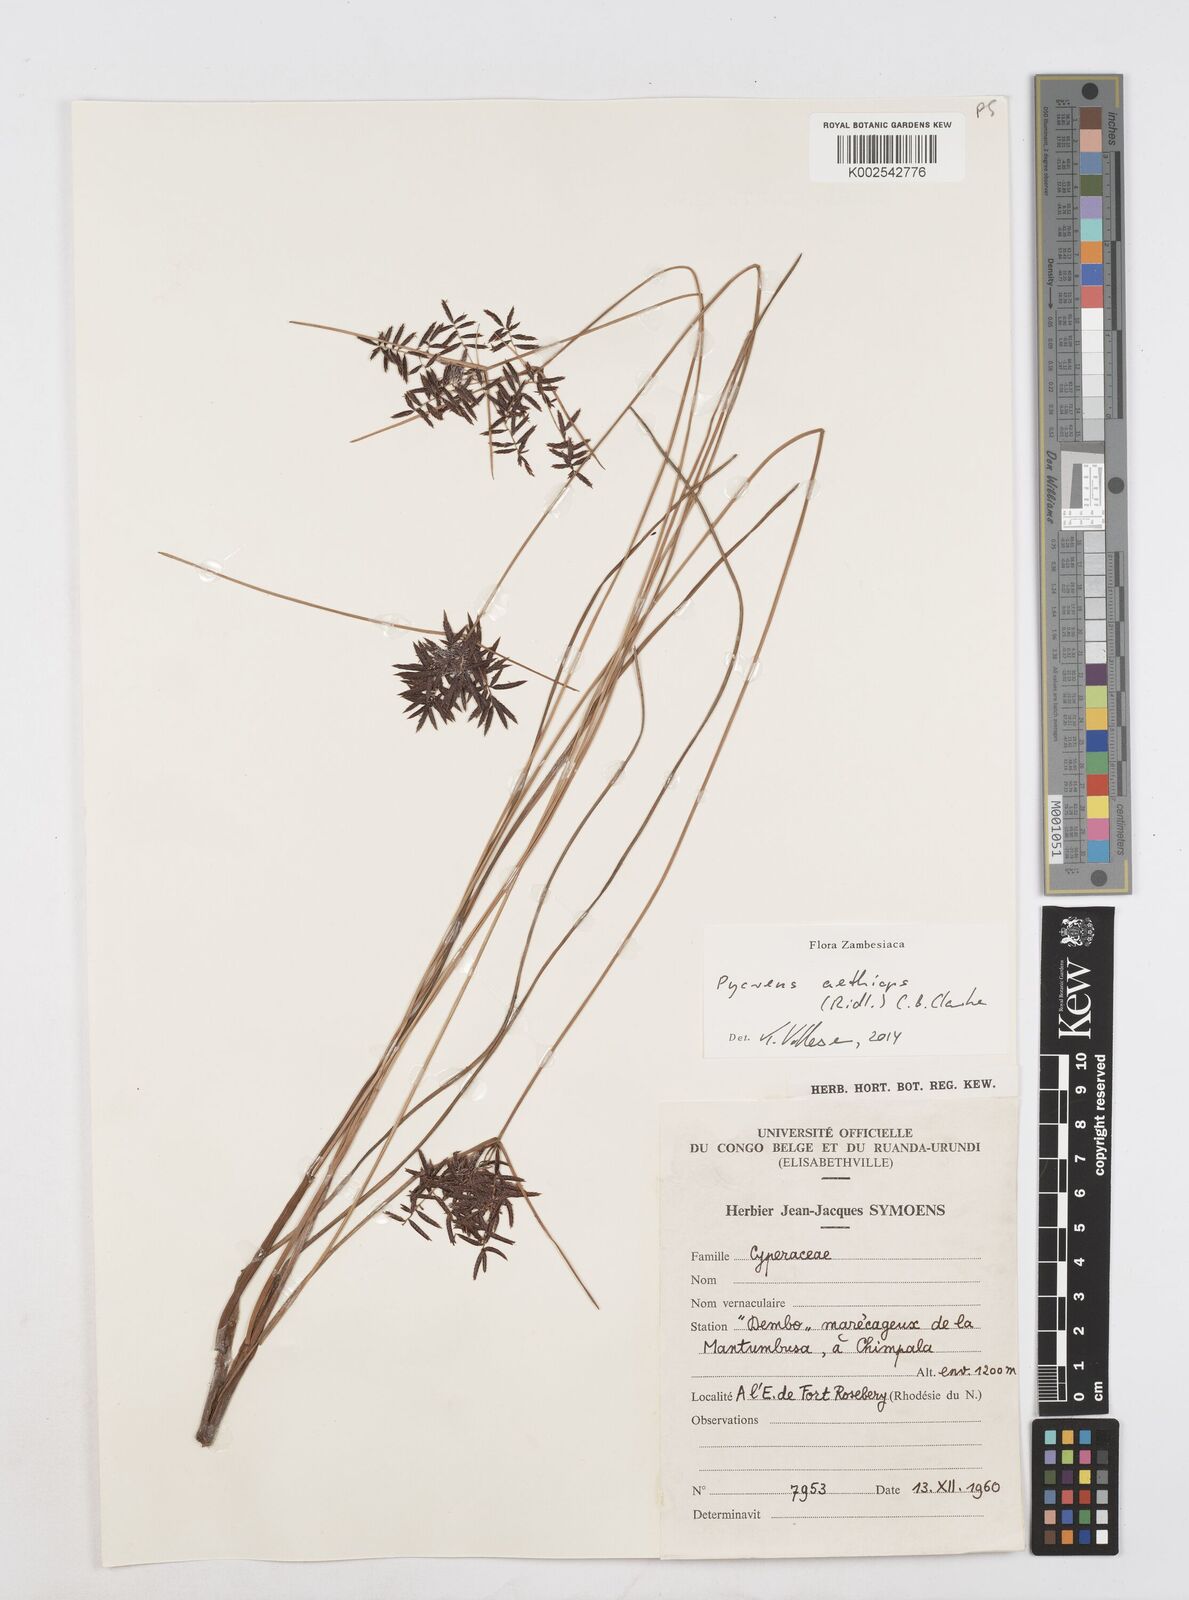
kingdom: Plantae
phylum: Tracheophyta
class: Liliopsida
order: Poales
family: Cyperaceae
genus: Cyperus
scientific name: Cyperus aethiops
